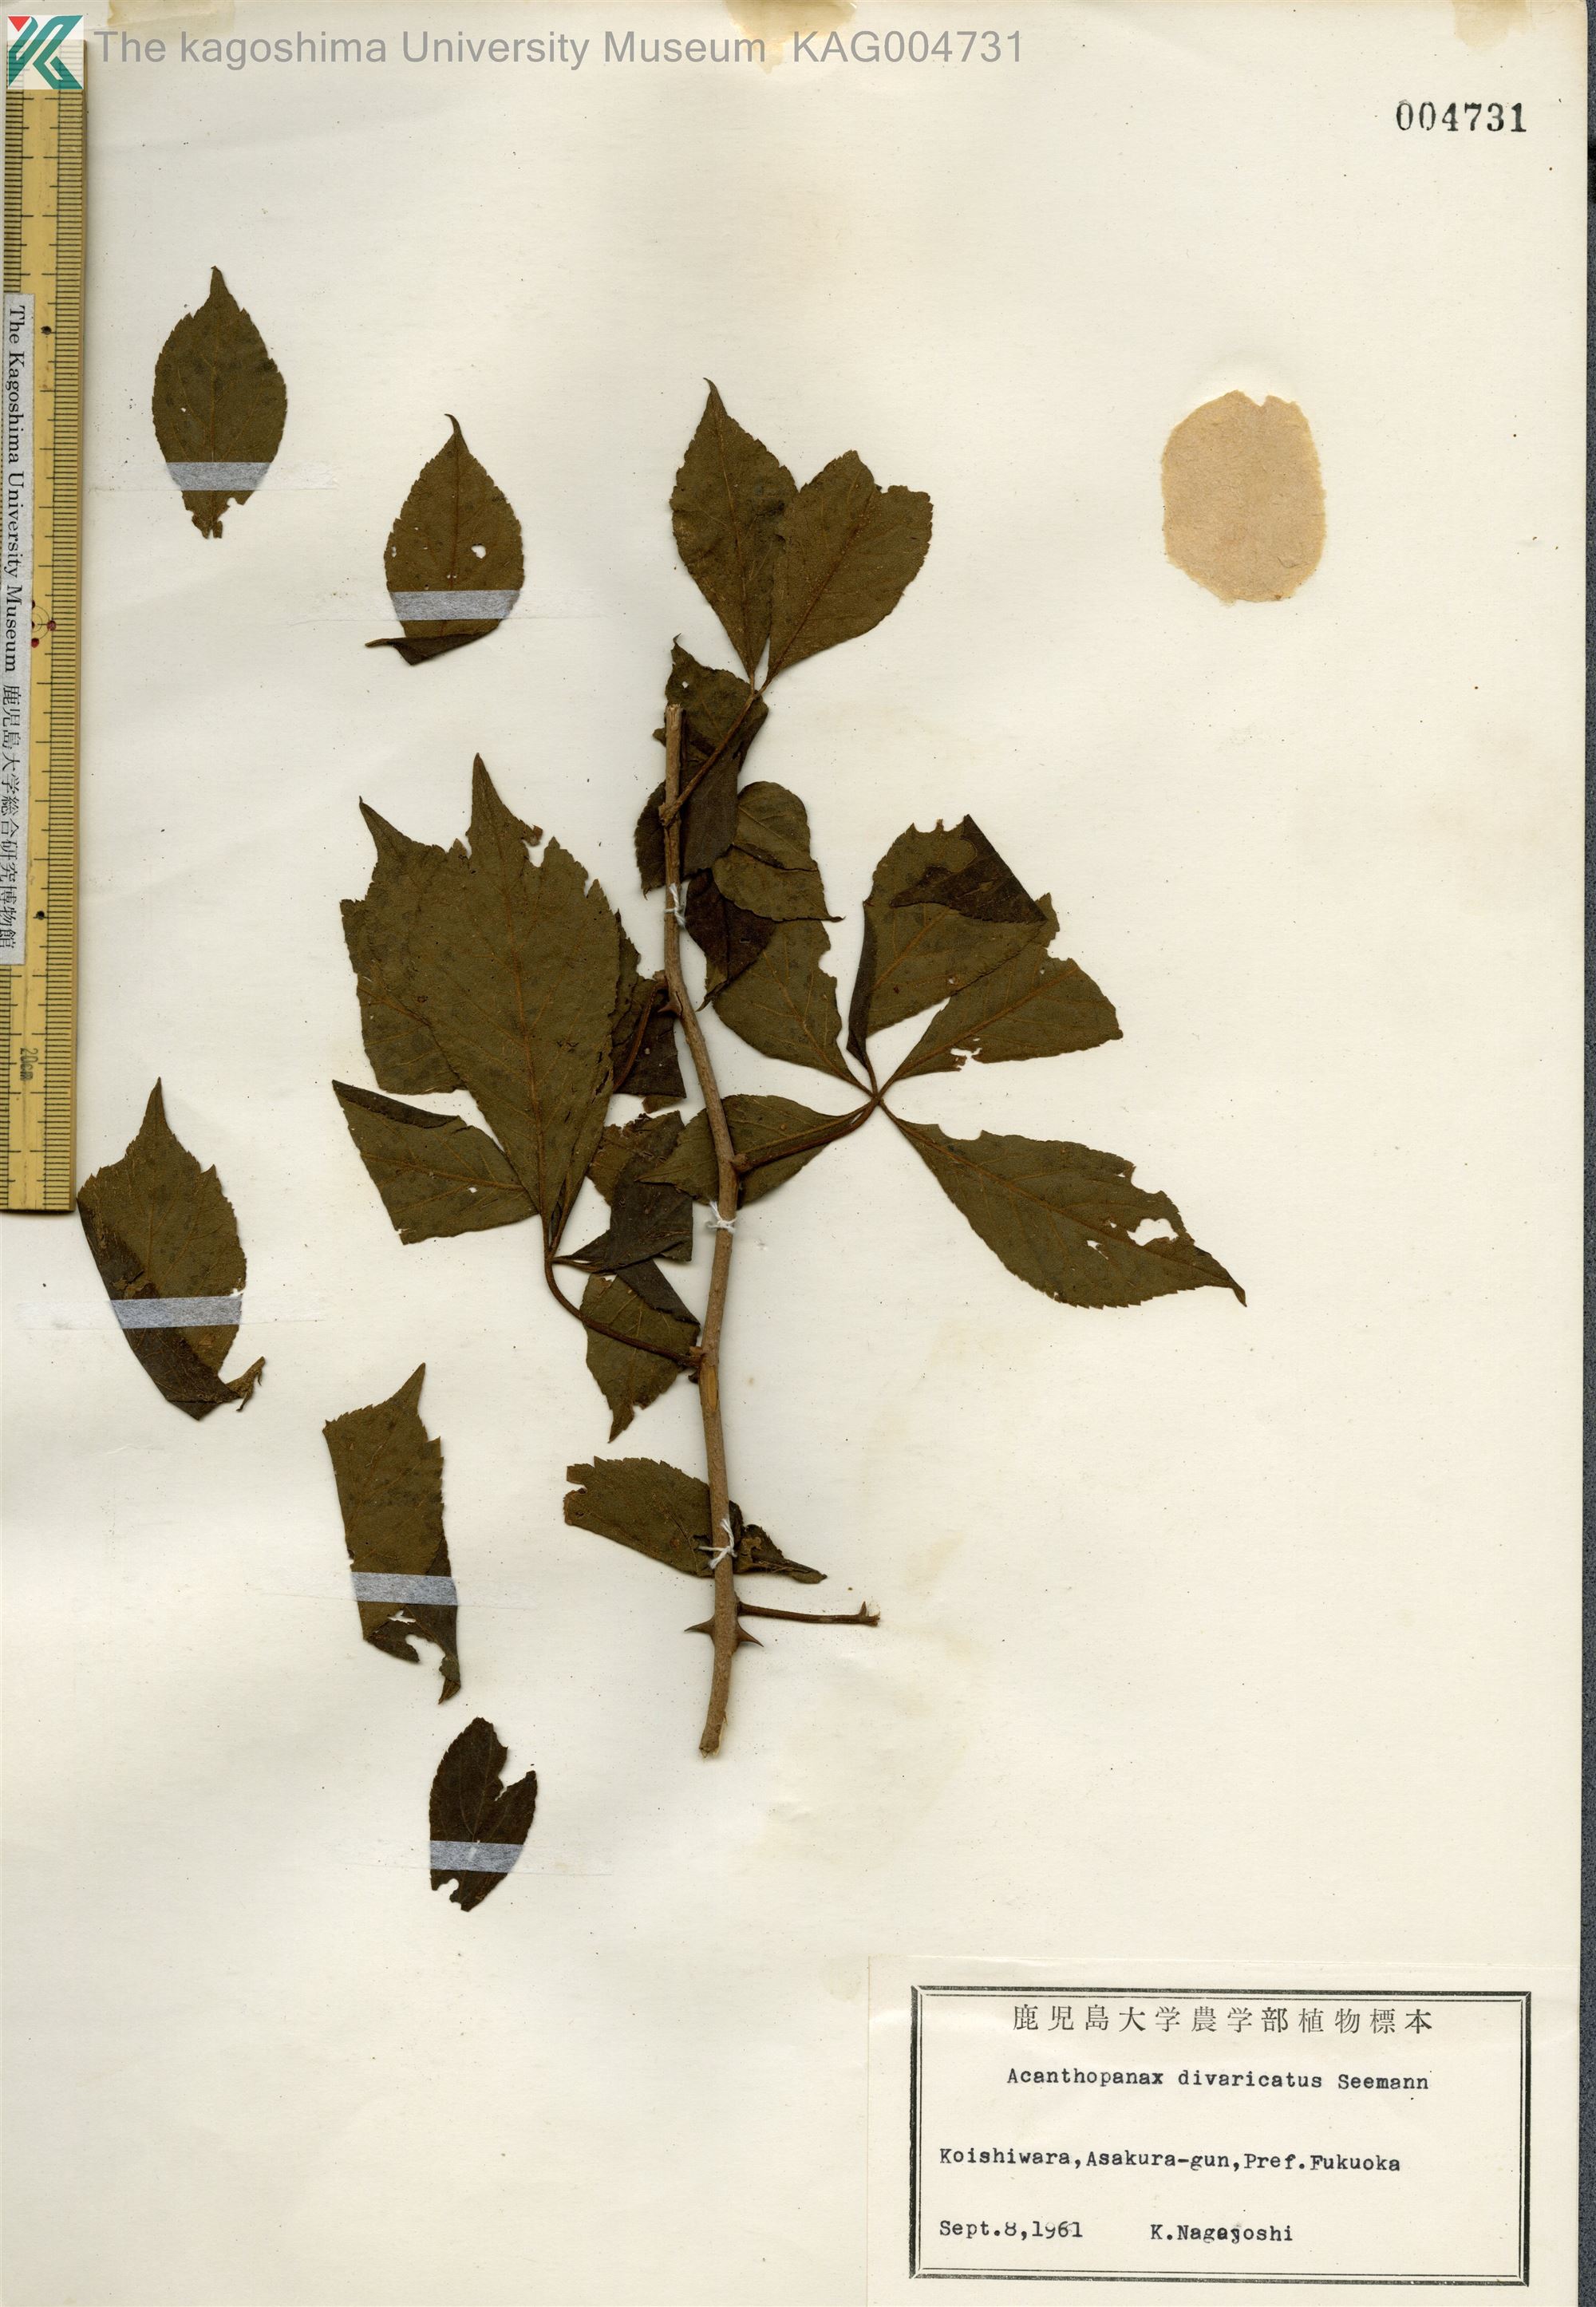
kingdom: Plantae
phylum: Tracheophyta
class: Magnoliopsida
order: Apiales
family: Araliaceae
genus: Eleutherococcus
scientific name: Eleutherococcus divaricatus
